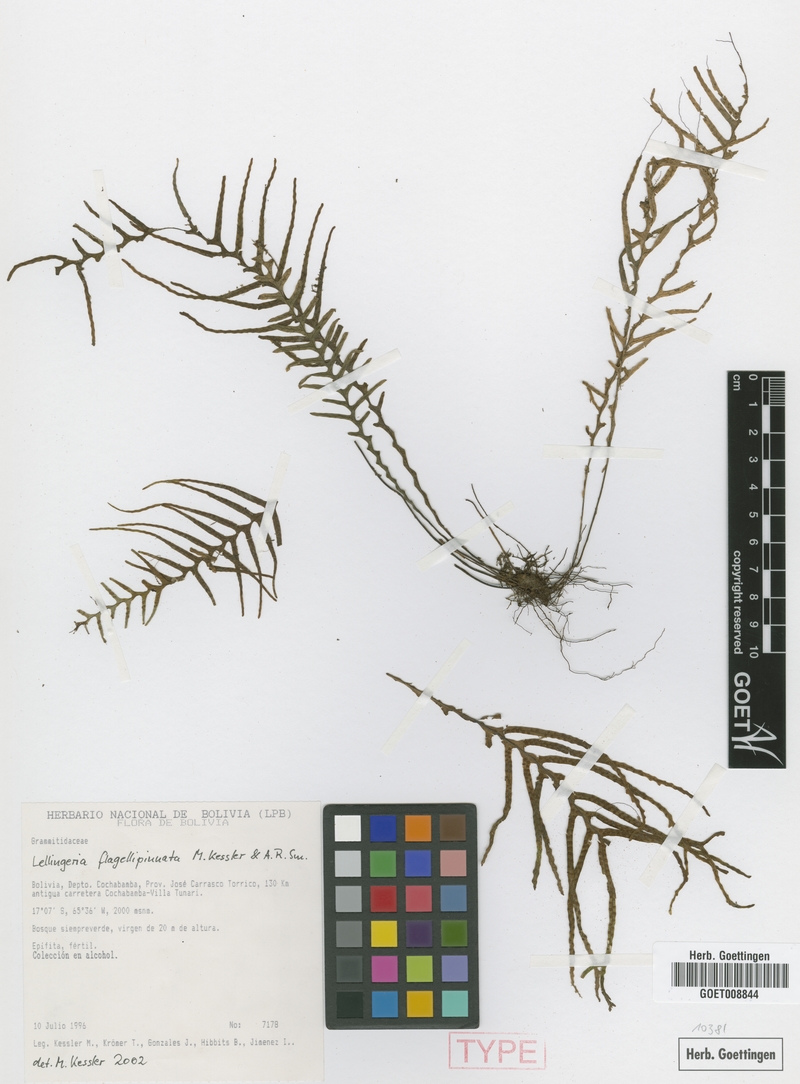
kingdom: Plantae
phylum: Tracheophyta
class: Polypodiopsida
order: Polypodiales
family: Polypodiaceae
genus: Lellingeria
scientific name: Lellingeria flagellipinnata
